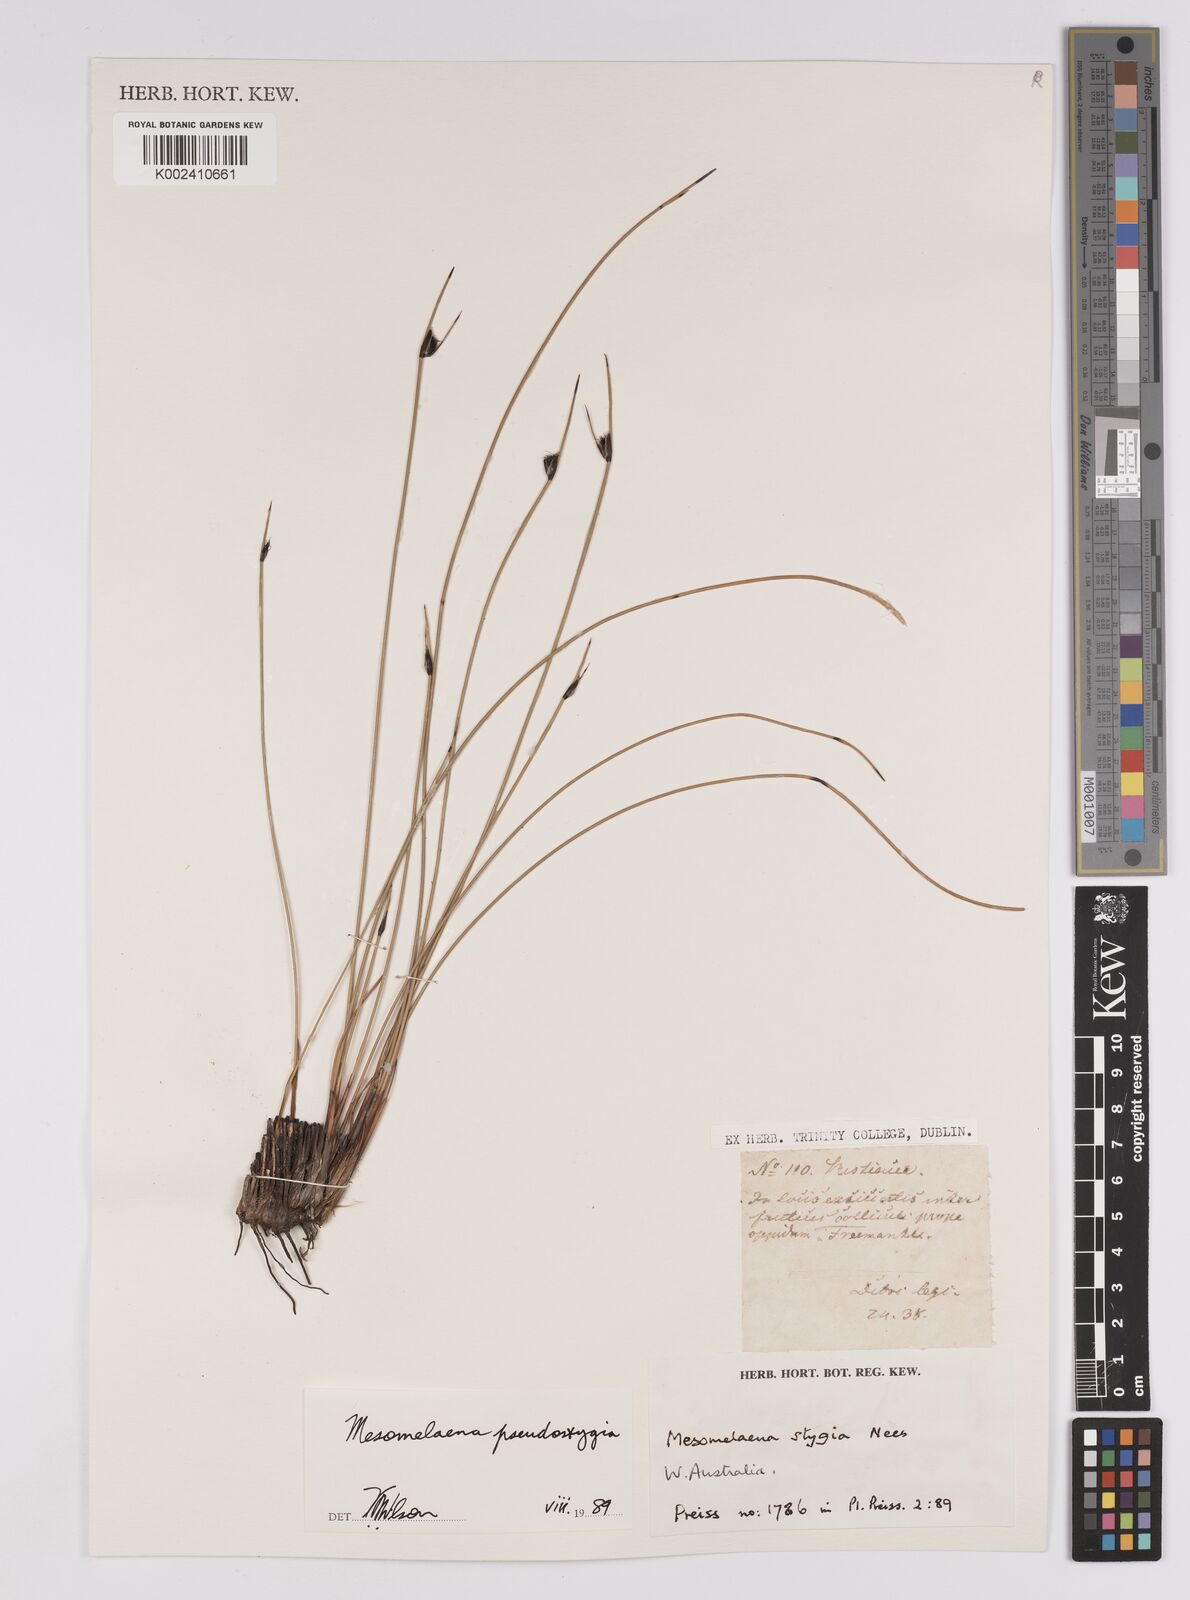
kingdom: Plantae
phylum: Tracheophyta
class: Liliopsida
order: Poales
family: Cyperaceae
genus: Mesomelaena
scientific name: Mesomelaena pseudostygia
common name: Semaphore sedge
